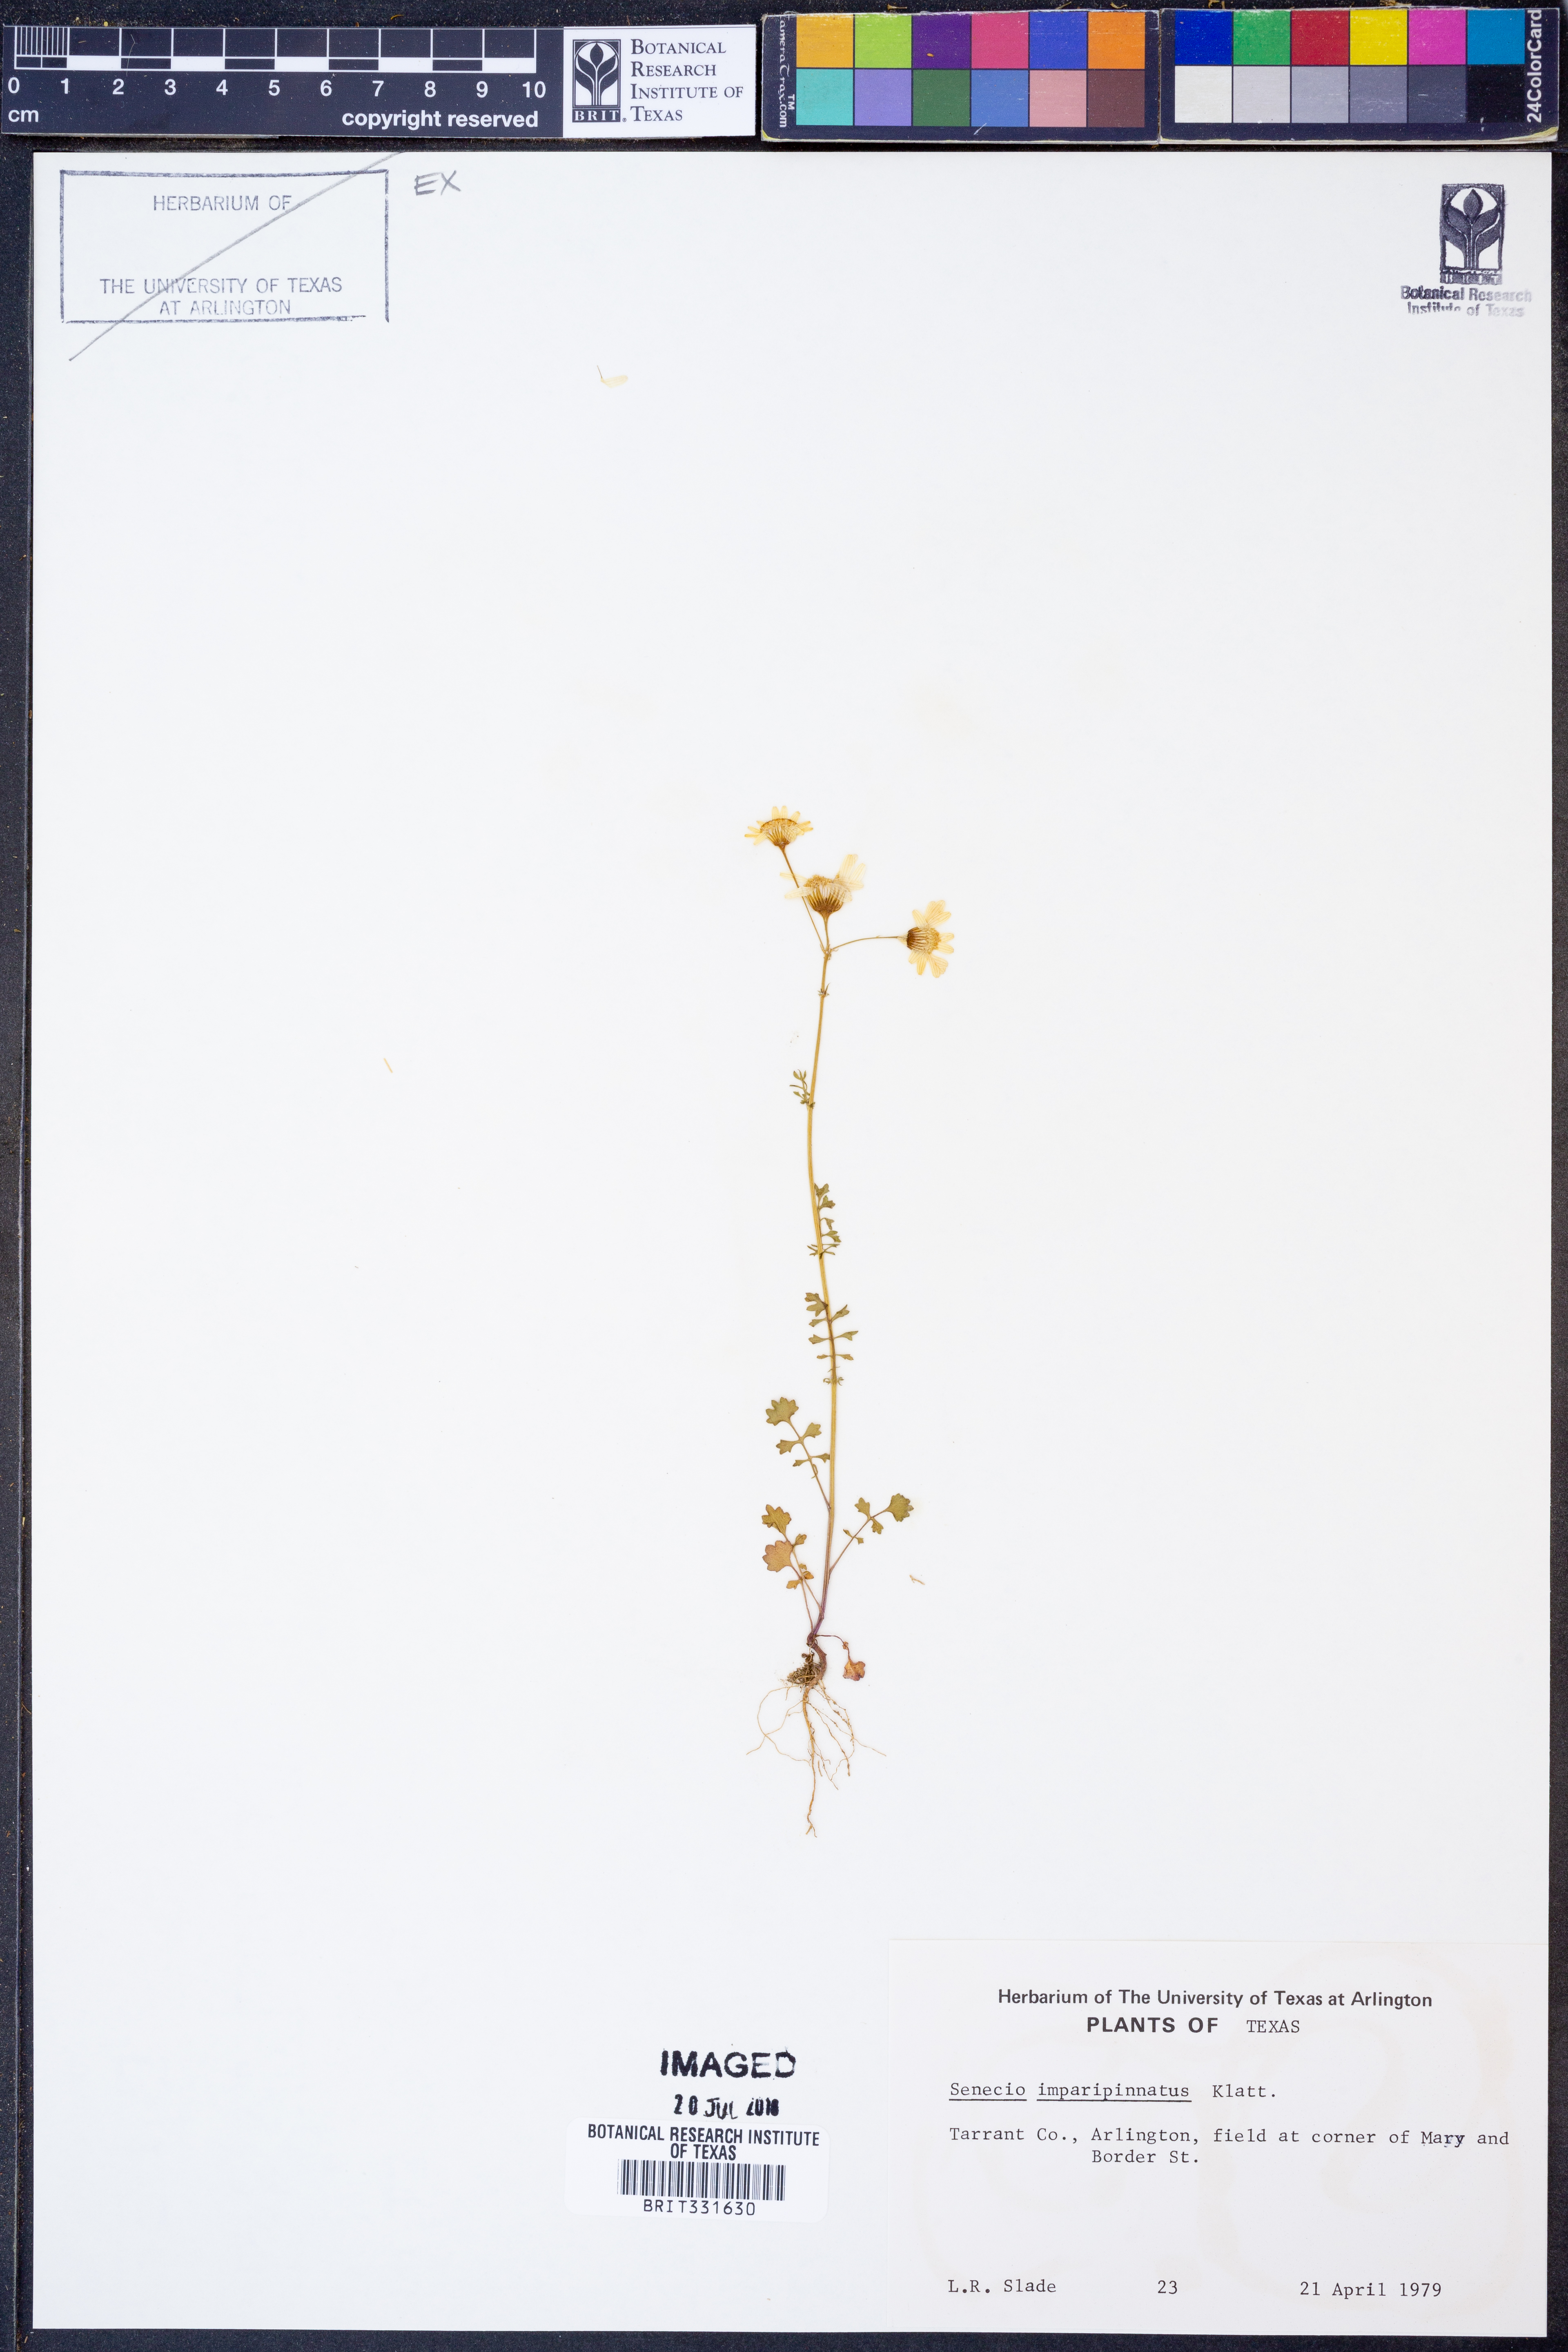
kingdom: Plantae
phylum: Tracheophyta
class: Magnoliopsida
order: Asterales
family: Asteraceae
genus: Packera
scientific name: Packera tampicana
